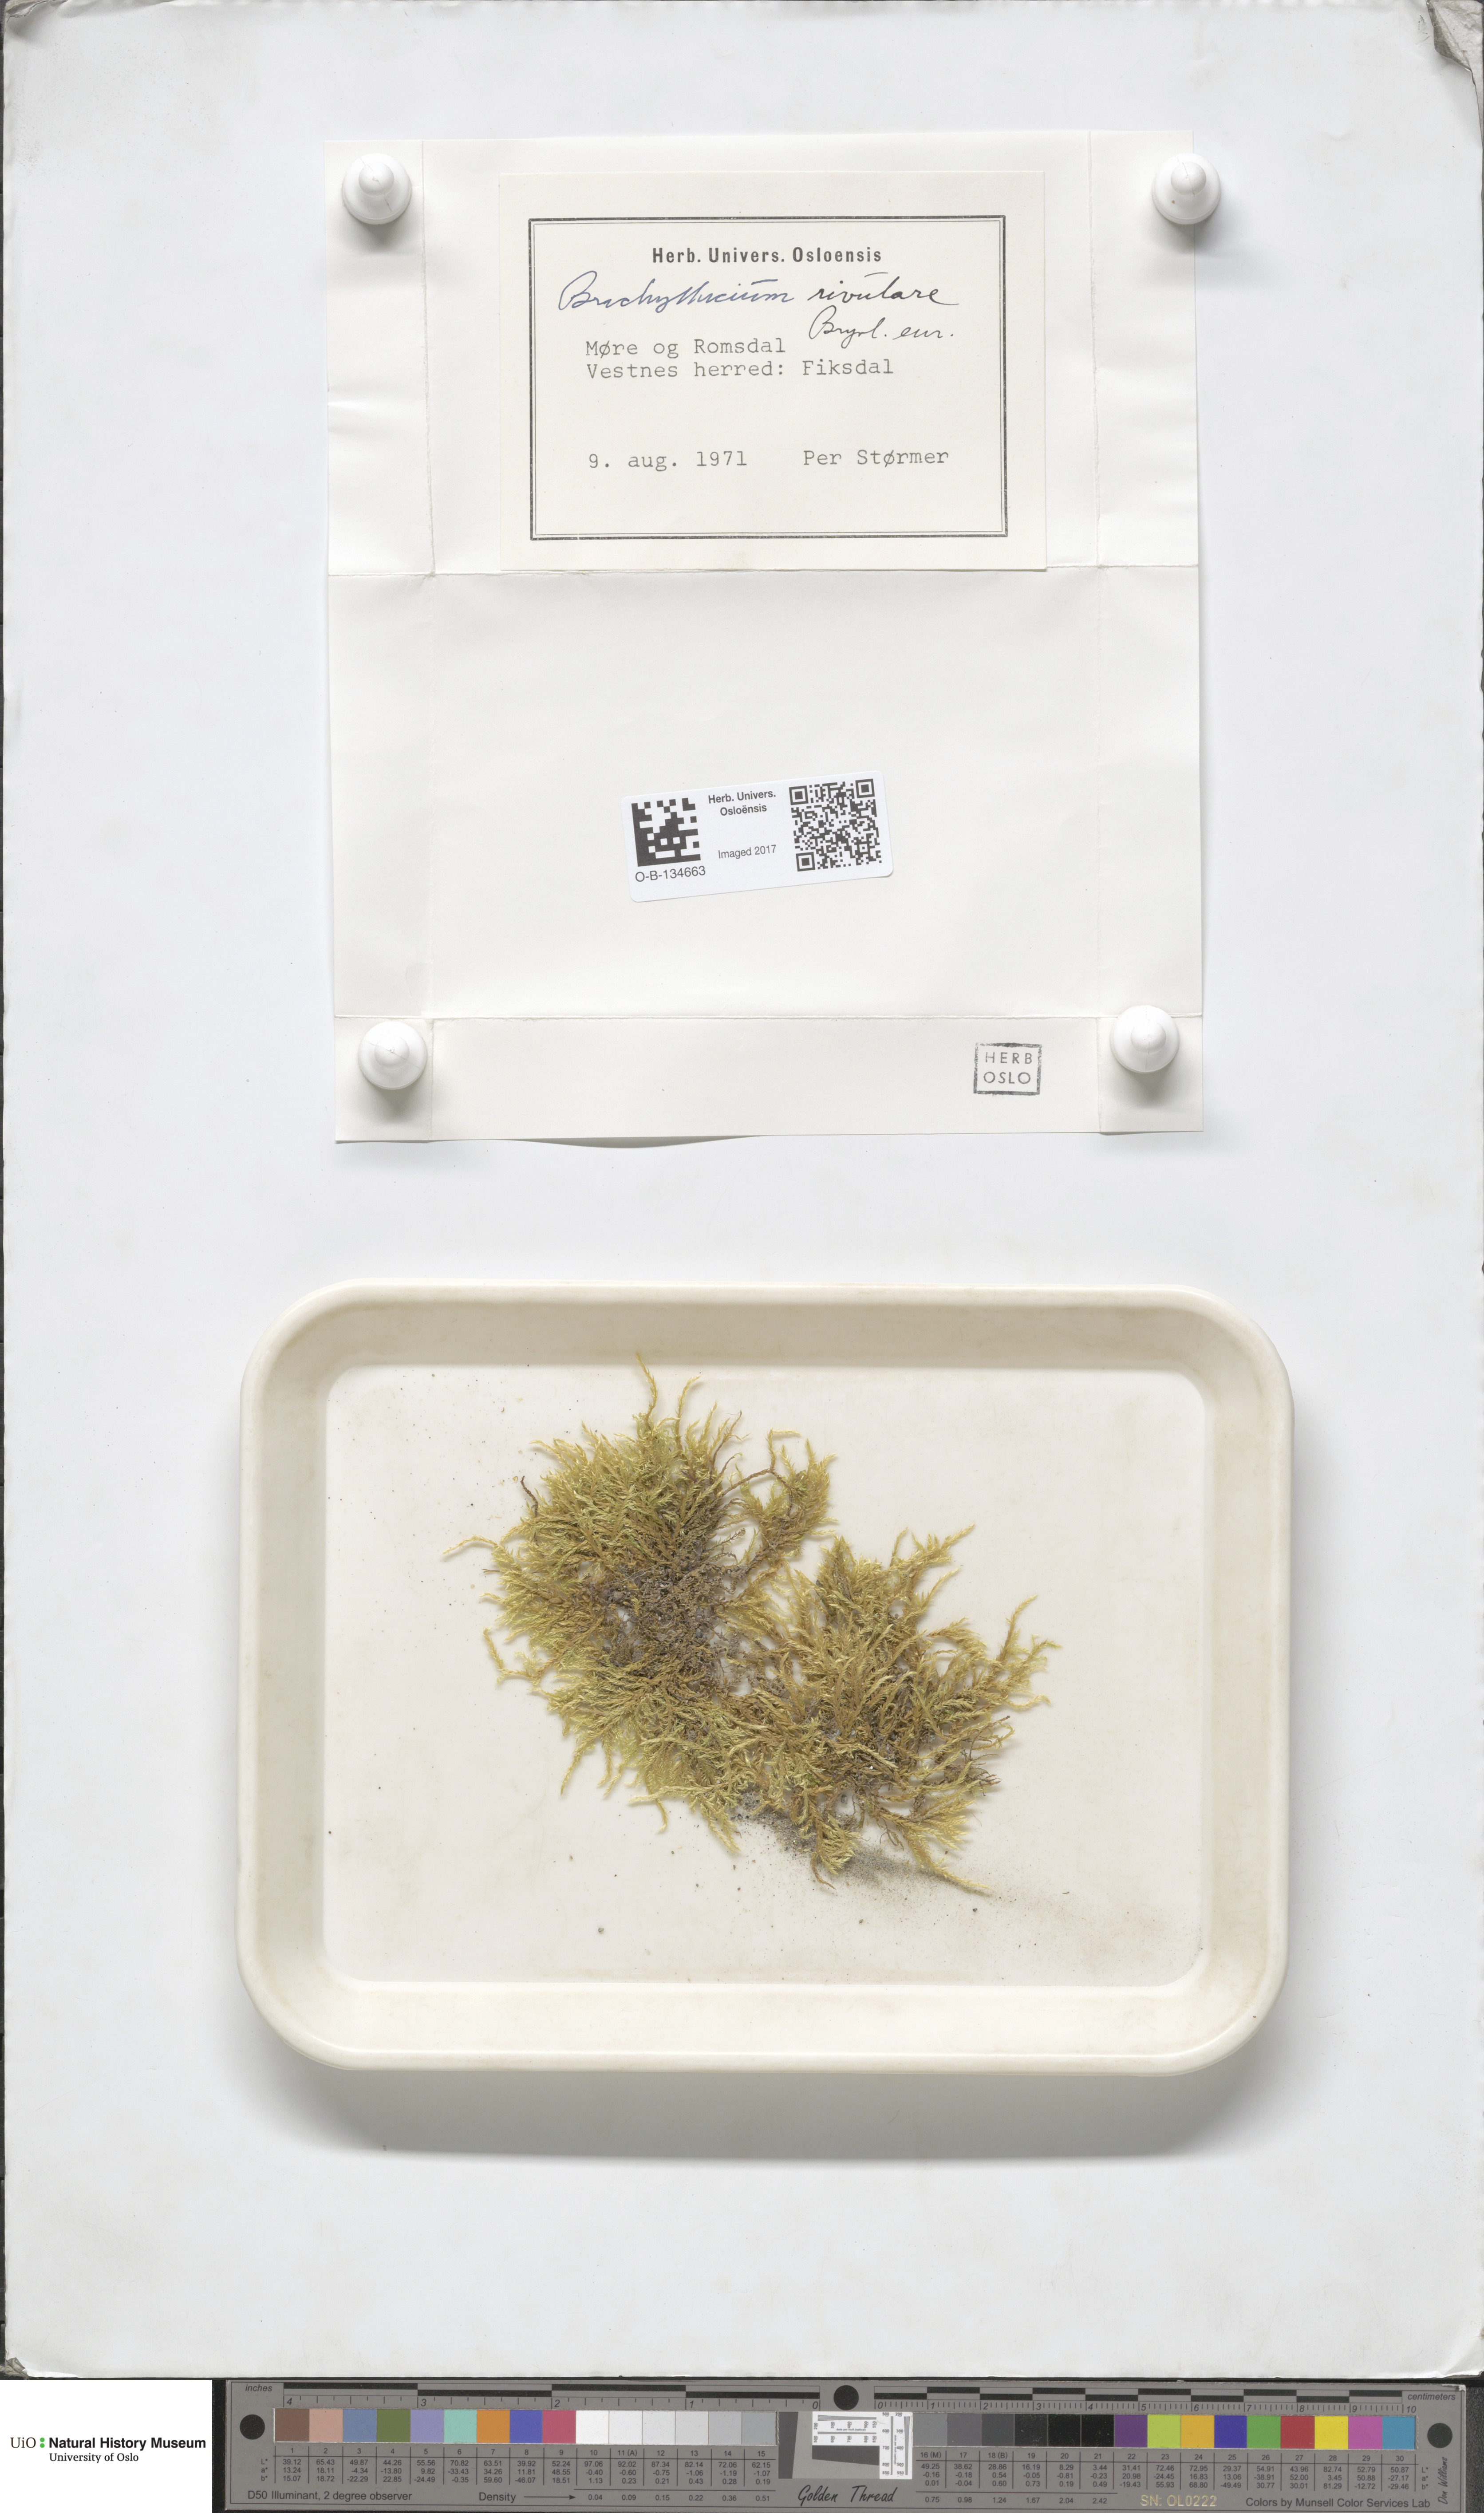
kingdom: Plantae
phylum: Bryophyta
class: Bryopsida
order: Hypnales
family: Brachytheciaceae
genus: Brachythecium
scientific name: Brachythecium rivulare
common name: River ragged moss
